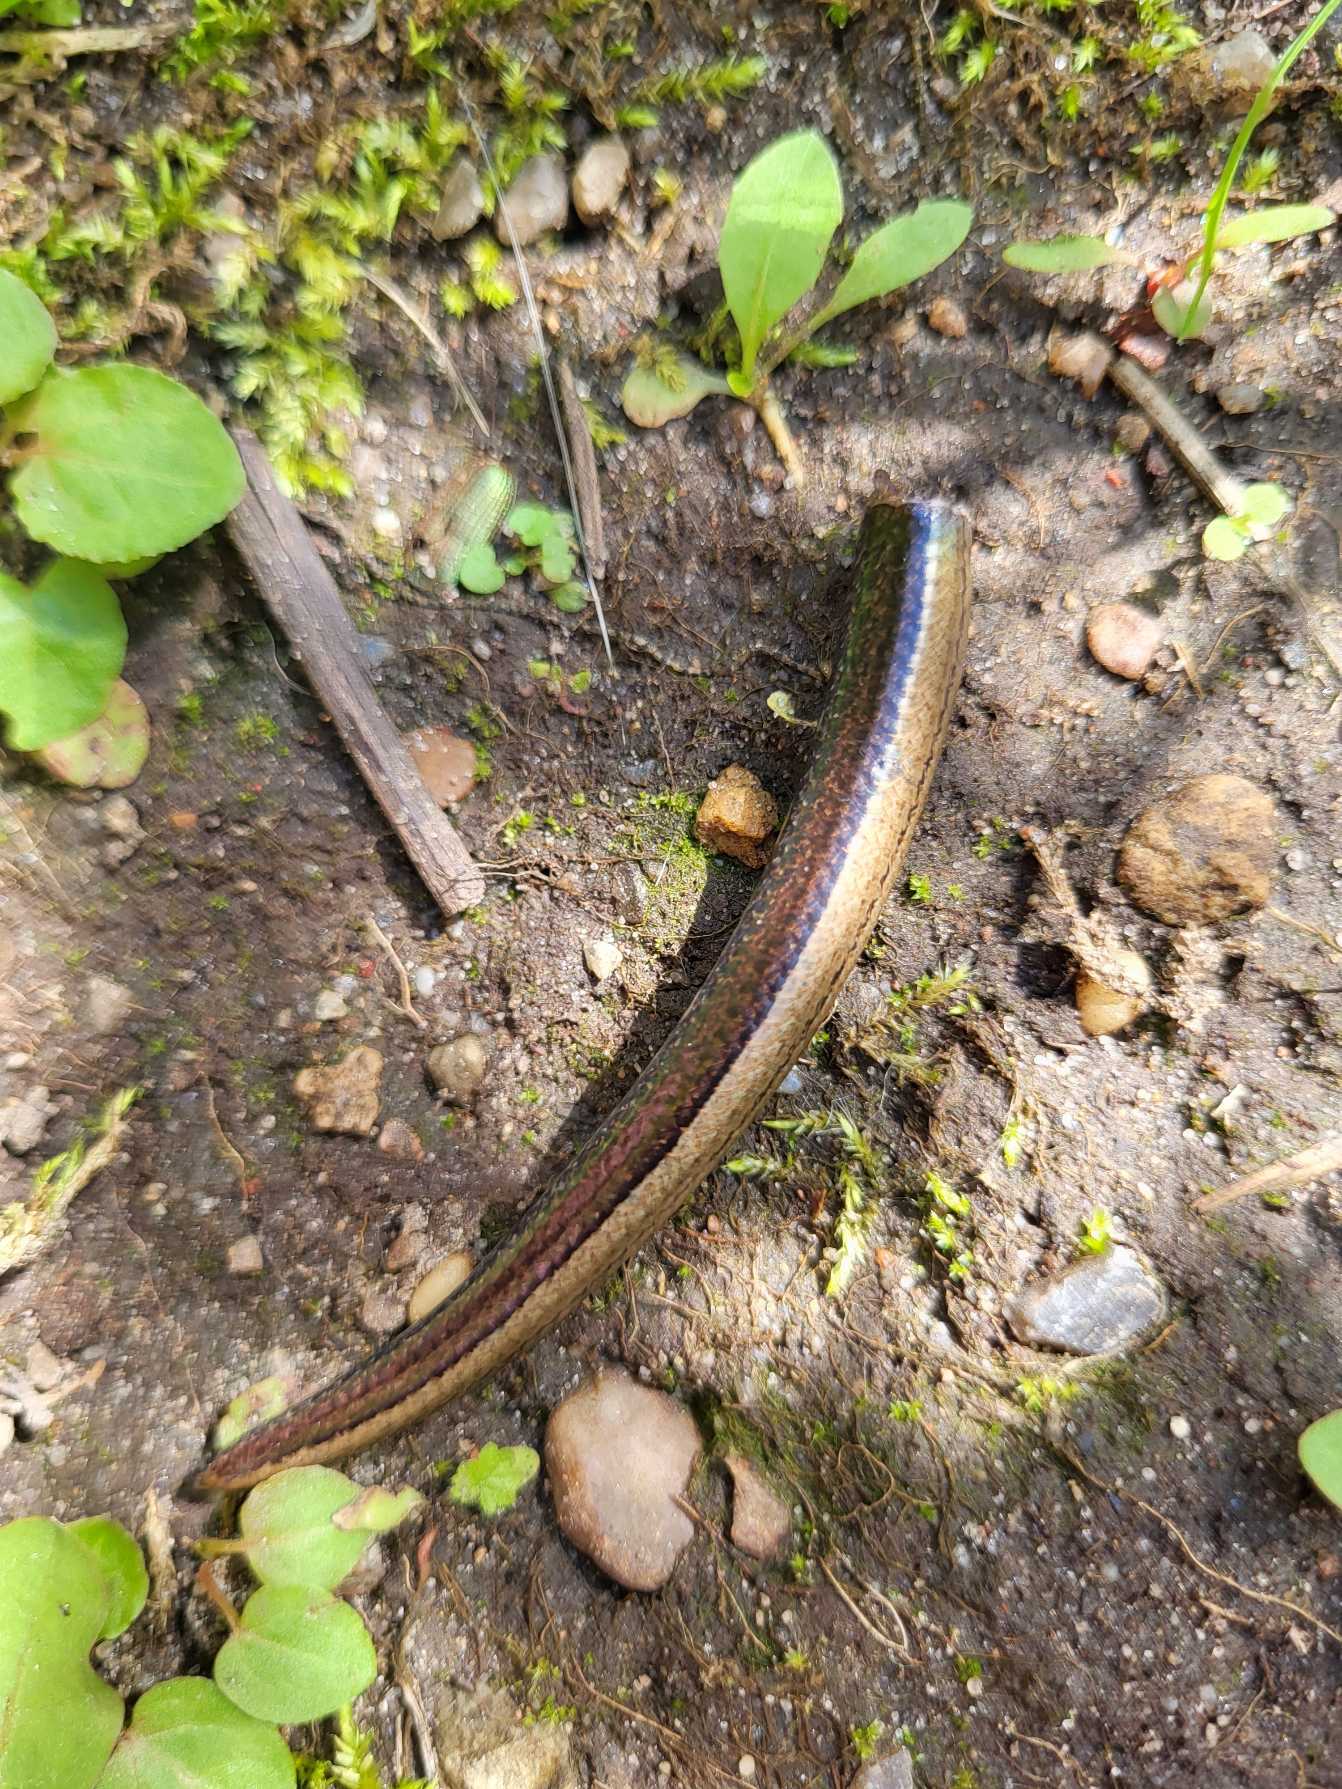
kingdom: Animalia
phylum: Chordata
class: Squamata
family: Anguidae
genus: Anguis
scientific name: Anguis fragilis
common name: Stålorm
